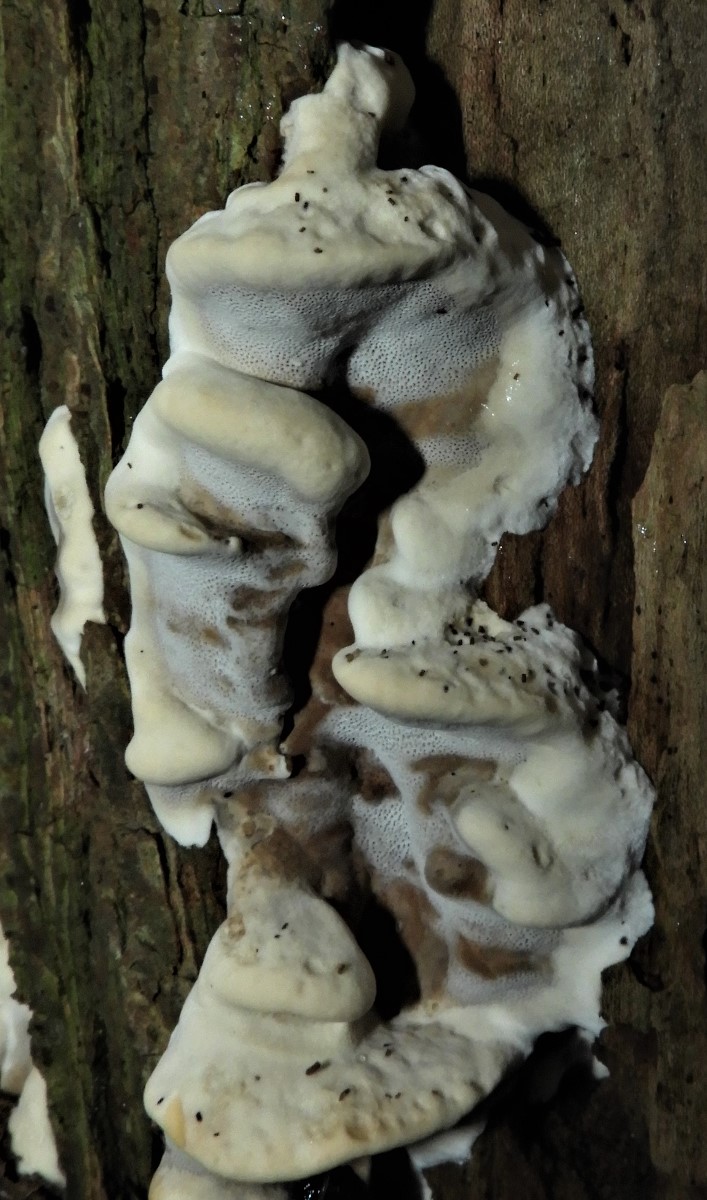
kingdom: Fungi
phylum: Basidiomycota
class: Agaricomycetes
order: Hymenochaetales
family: Hymenochaetaceae
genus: Xanthoporia
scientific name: Xanthoporia radiata
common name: elle-spejlporesvamp
